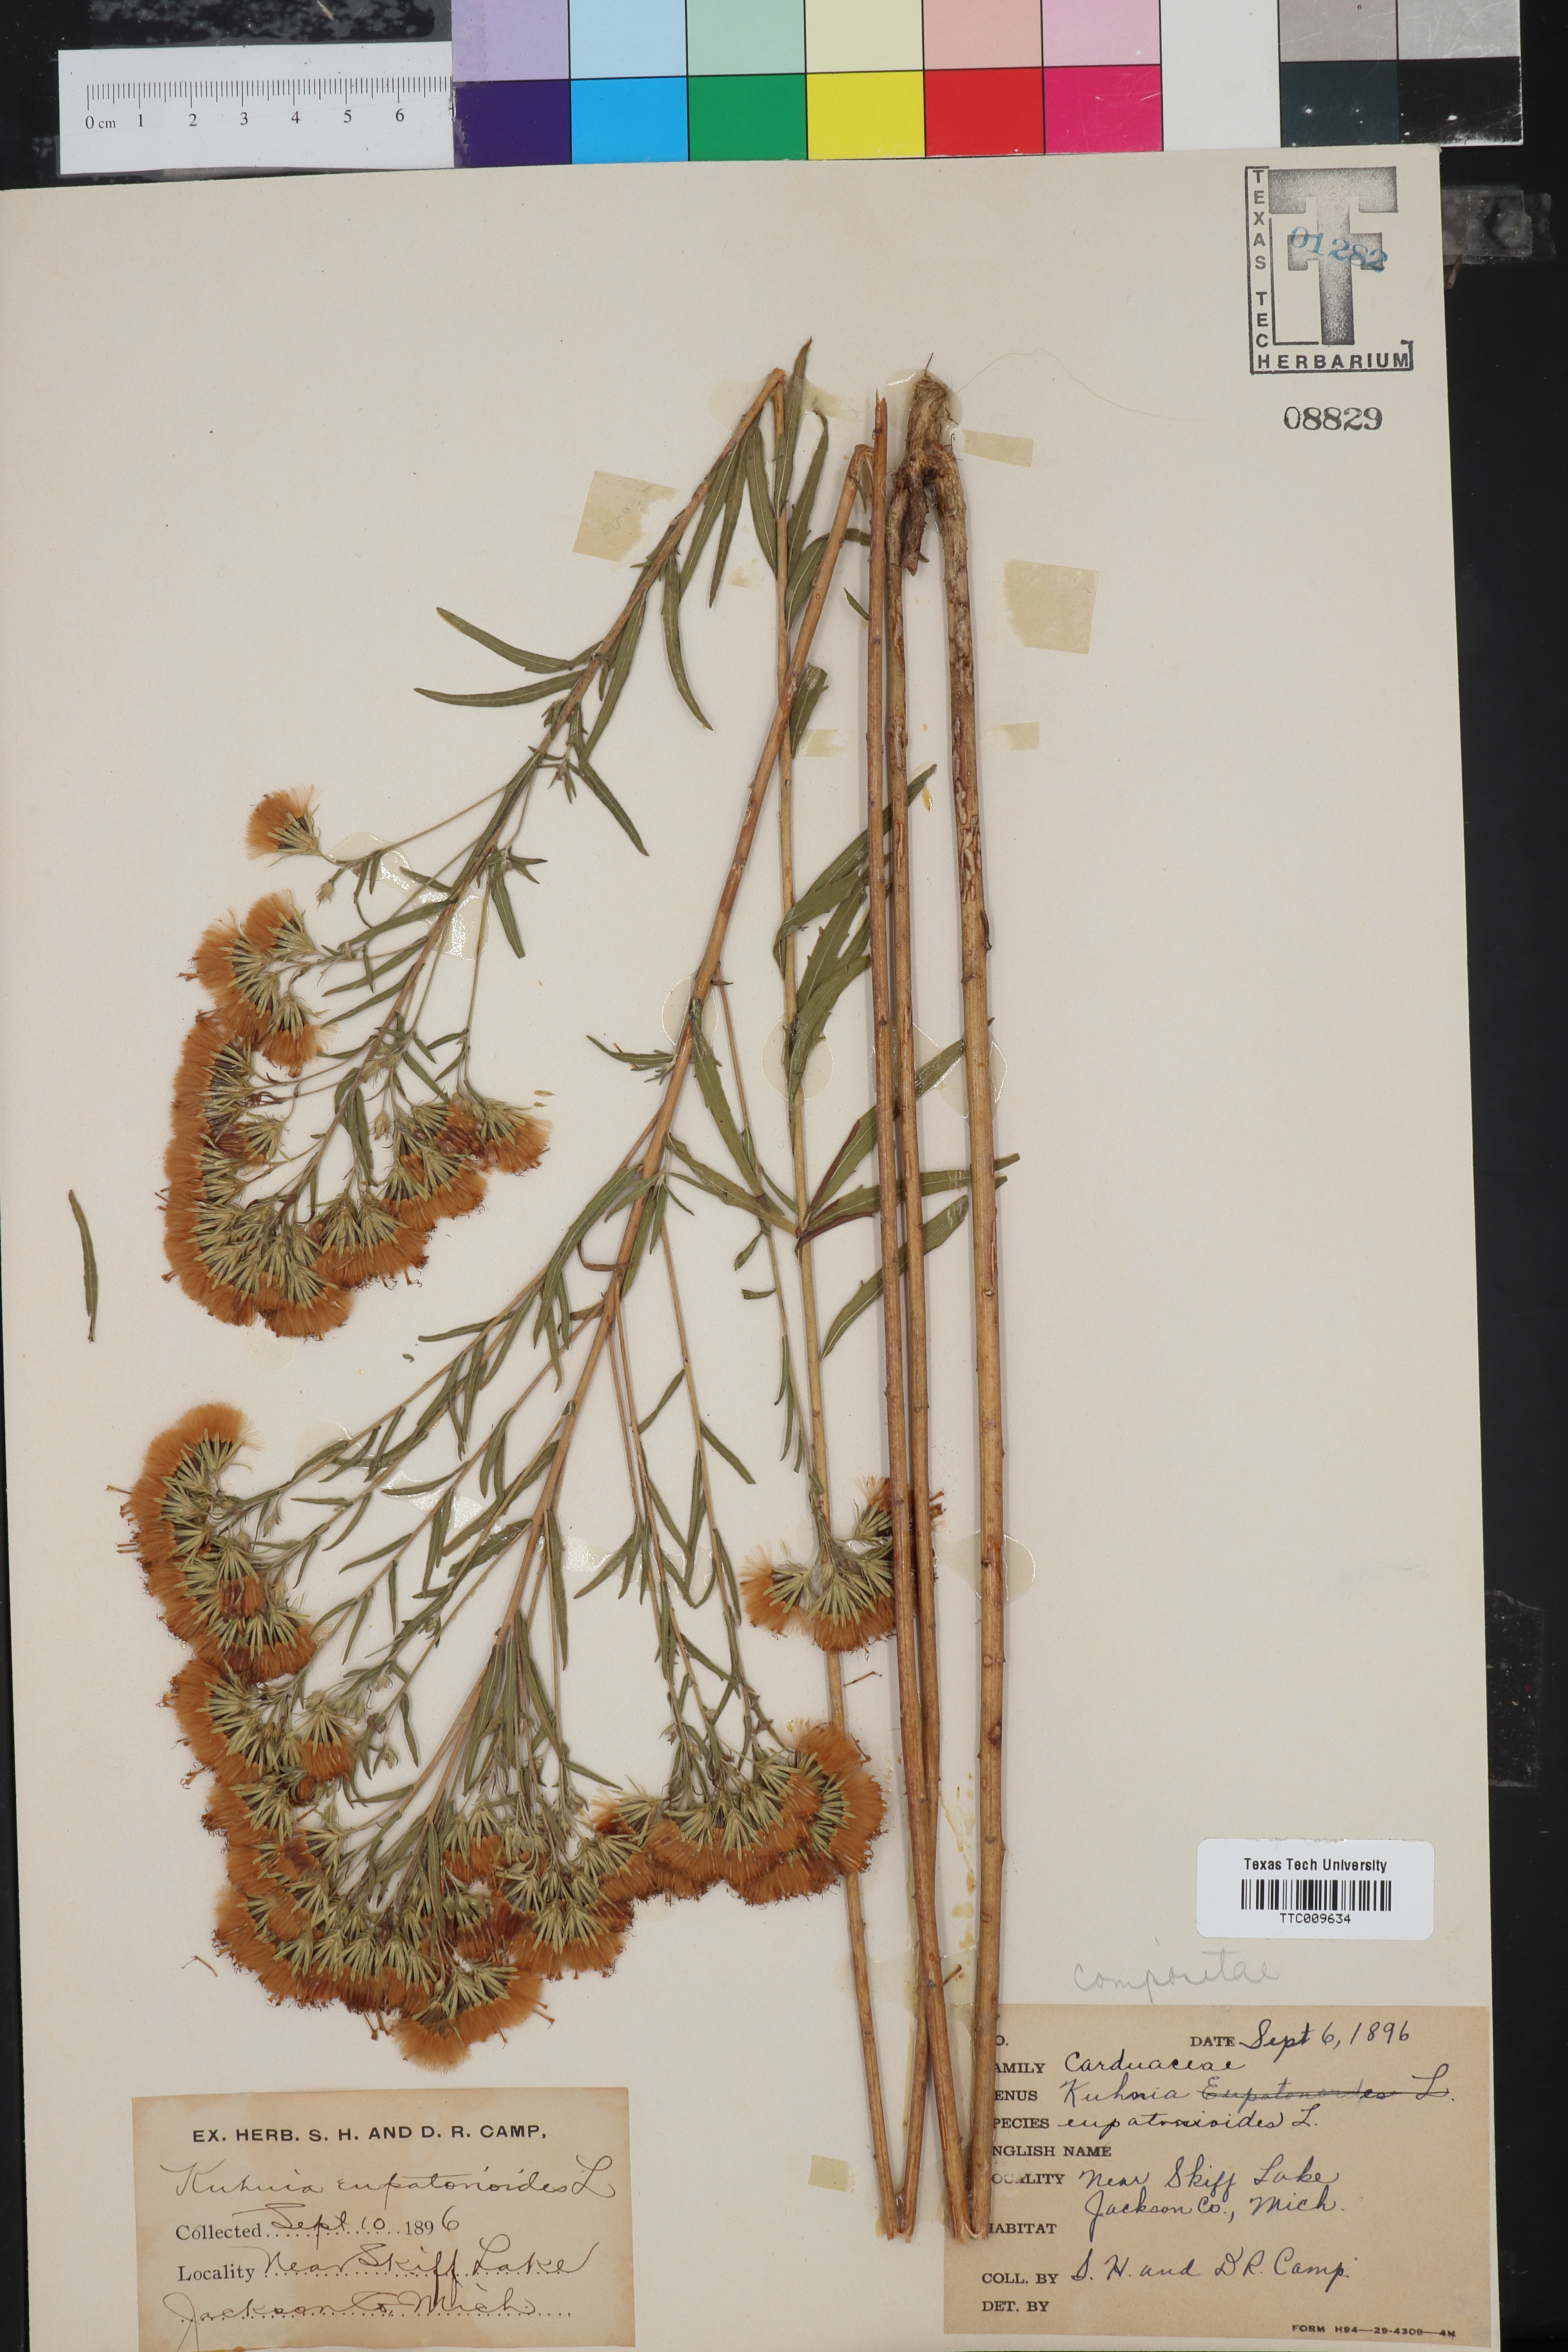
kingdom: Plantae
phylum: Tracheophyta
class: Magnoliopsida
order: Asterales
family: Asteraceae
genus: Brickellia
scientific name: Brickellia eupatorioides
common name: False boneset
